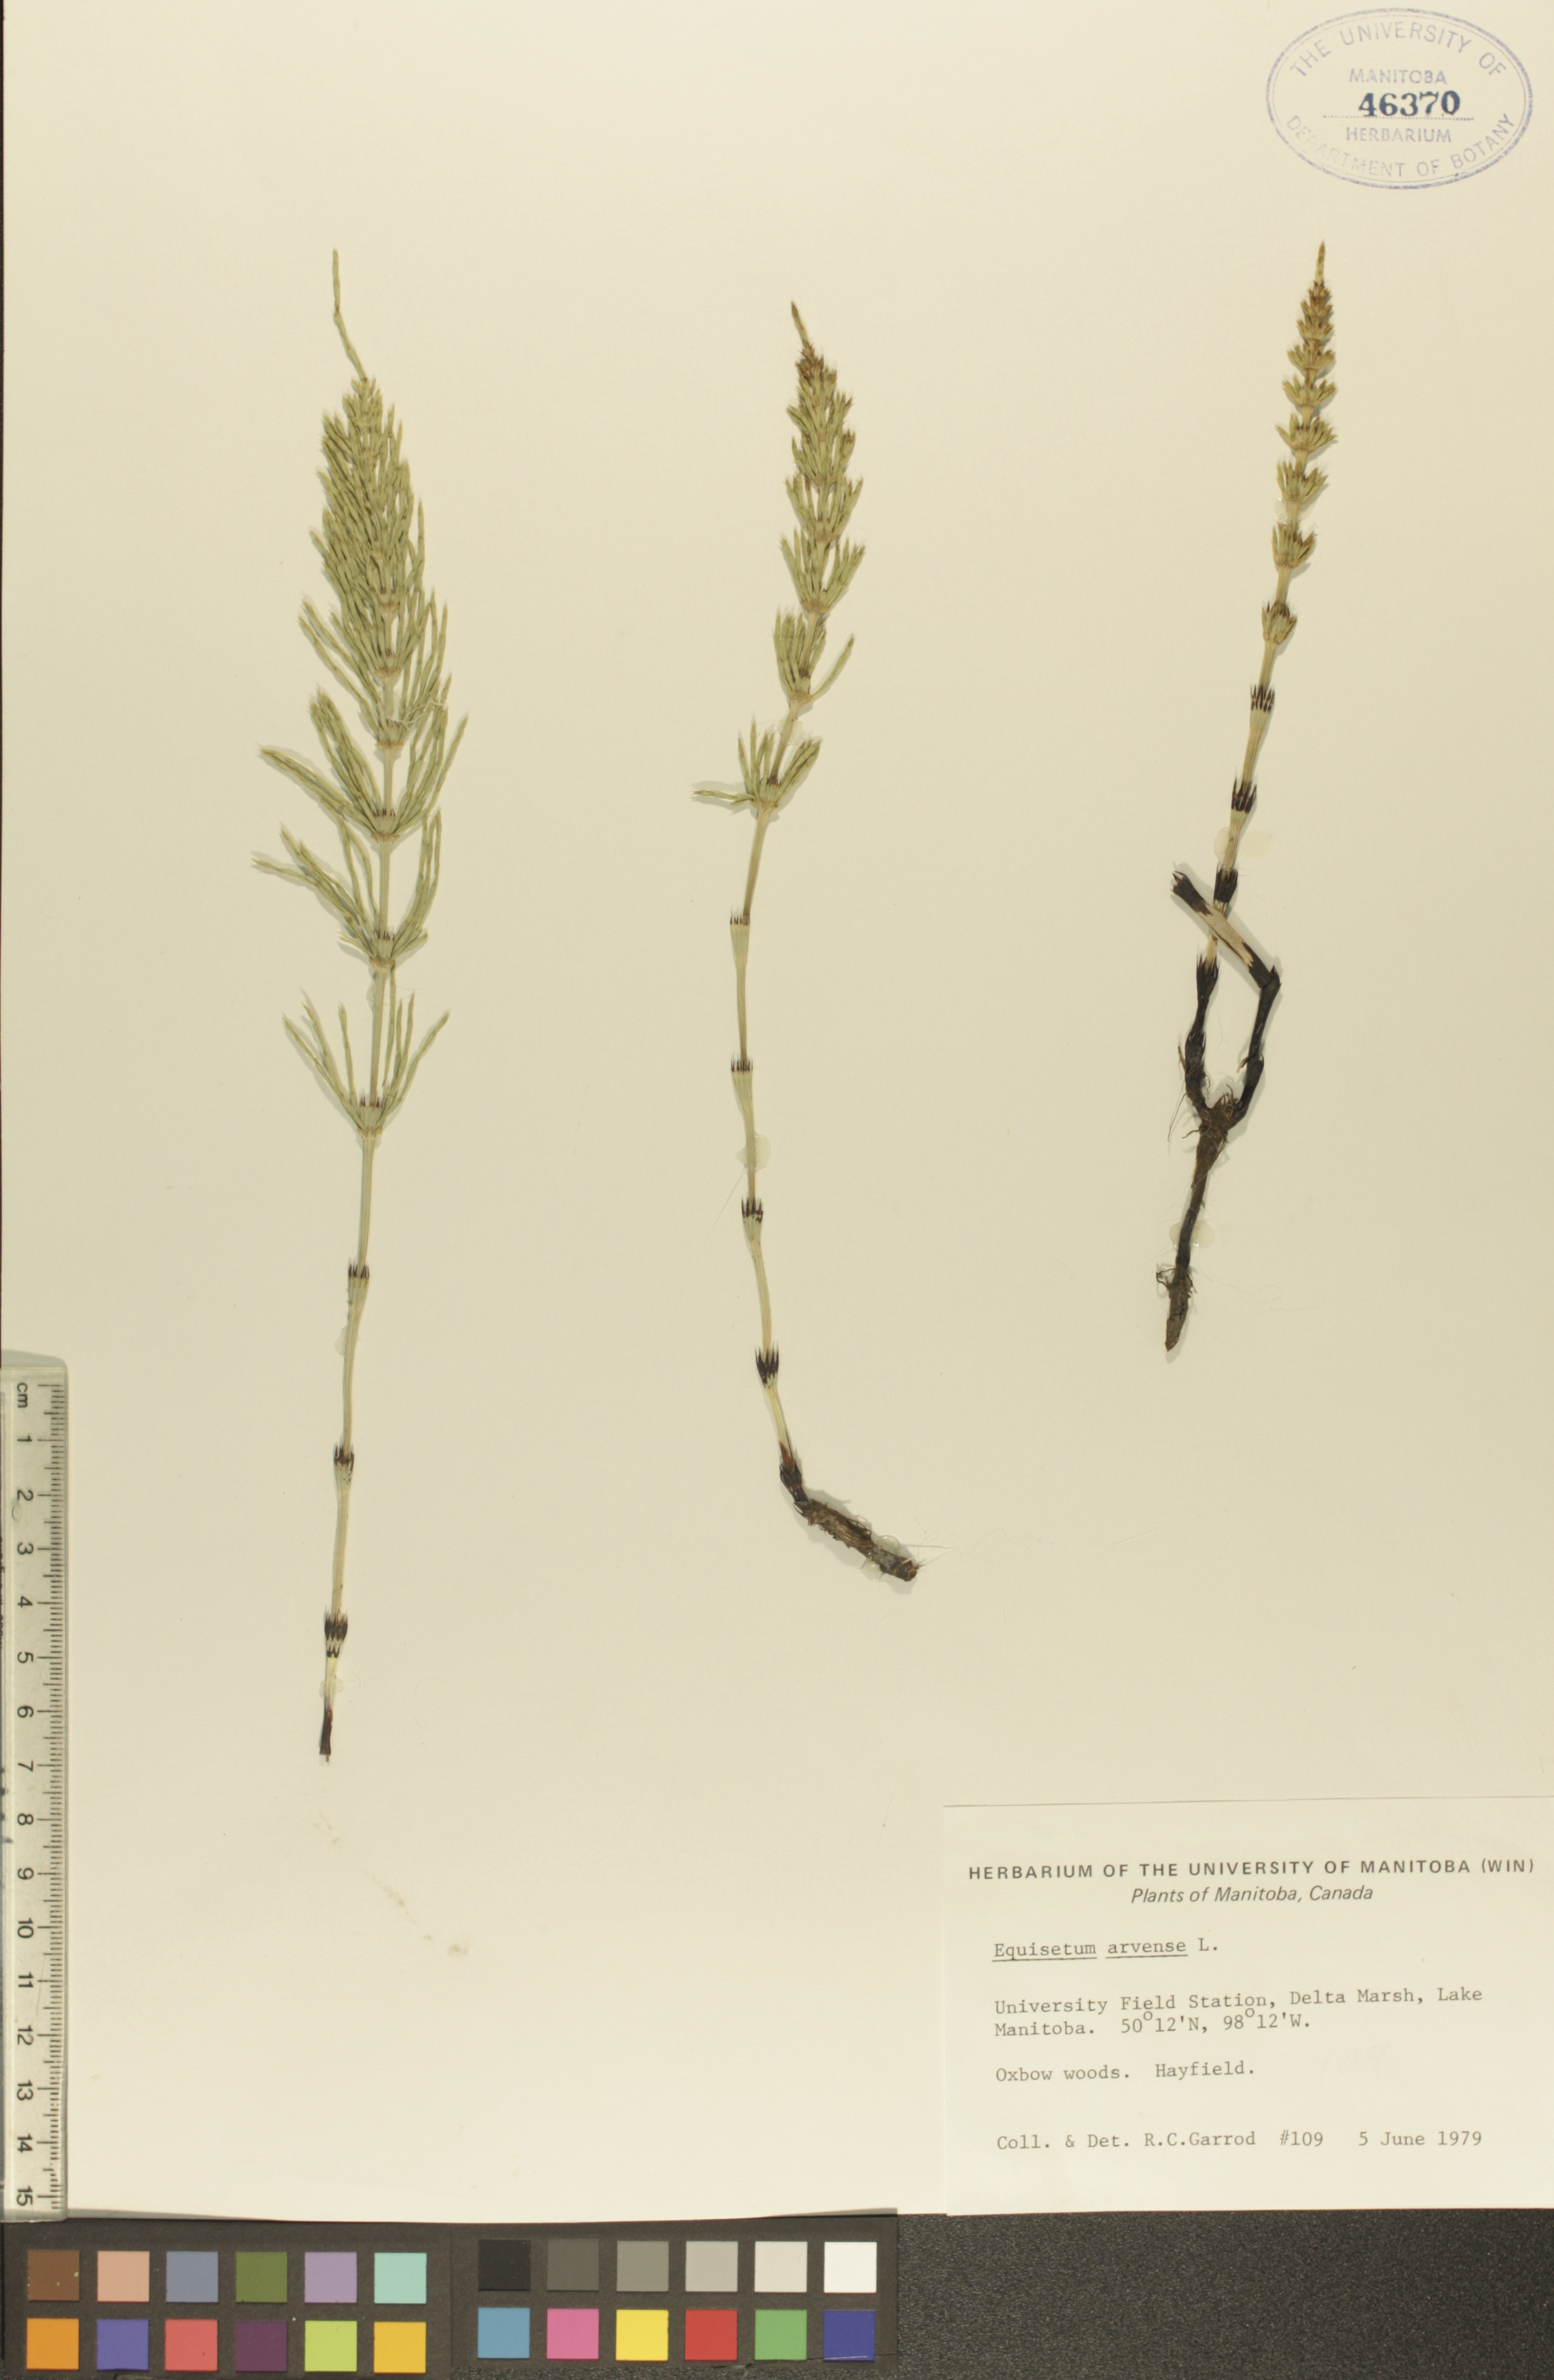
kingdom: Plantae
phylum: Tracheophyta
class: Polypodiopsida
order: Equisetales
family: Equisetaceae
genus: Equisetum
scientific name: Equisetum arvense
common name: Field horsetail
